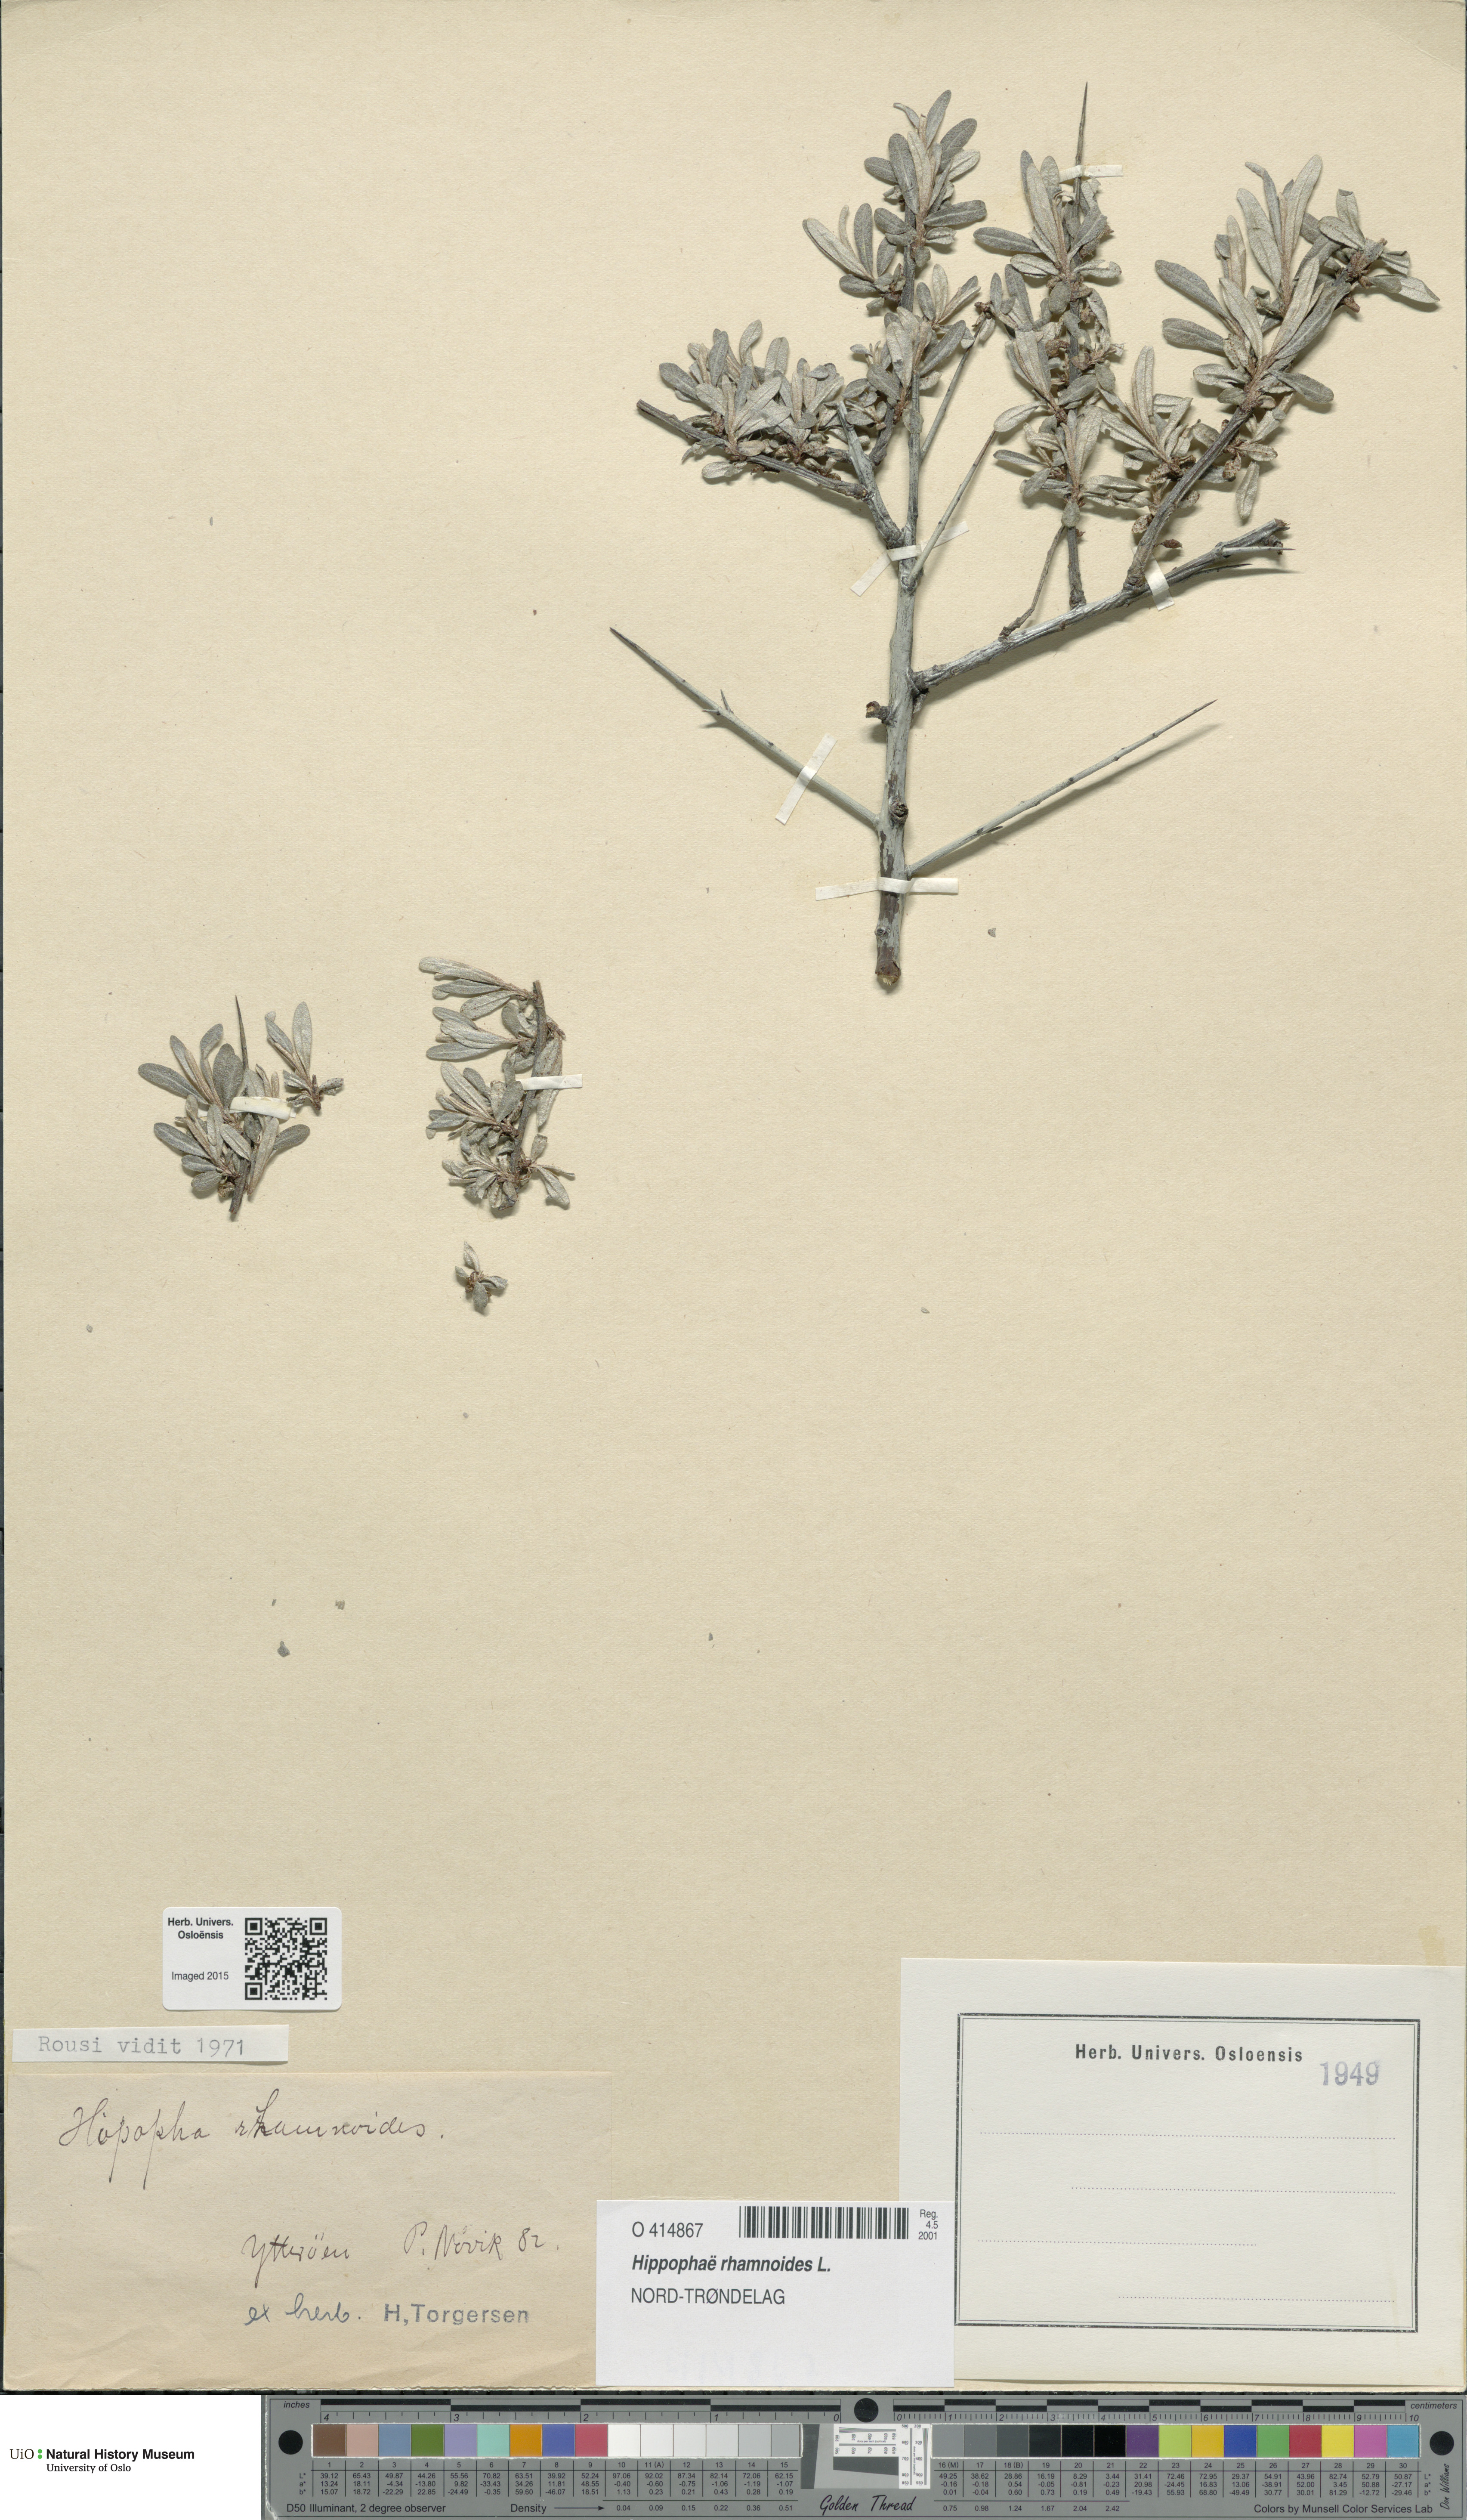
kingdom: Plantae
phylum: Tracheophyta
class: Magnoliopsida
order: Rosales
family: Elaeagnaceae
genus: Hippophae
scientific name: Hippophae rhamnoides
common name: Sea-buckthorn
